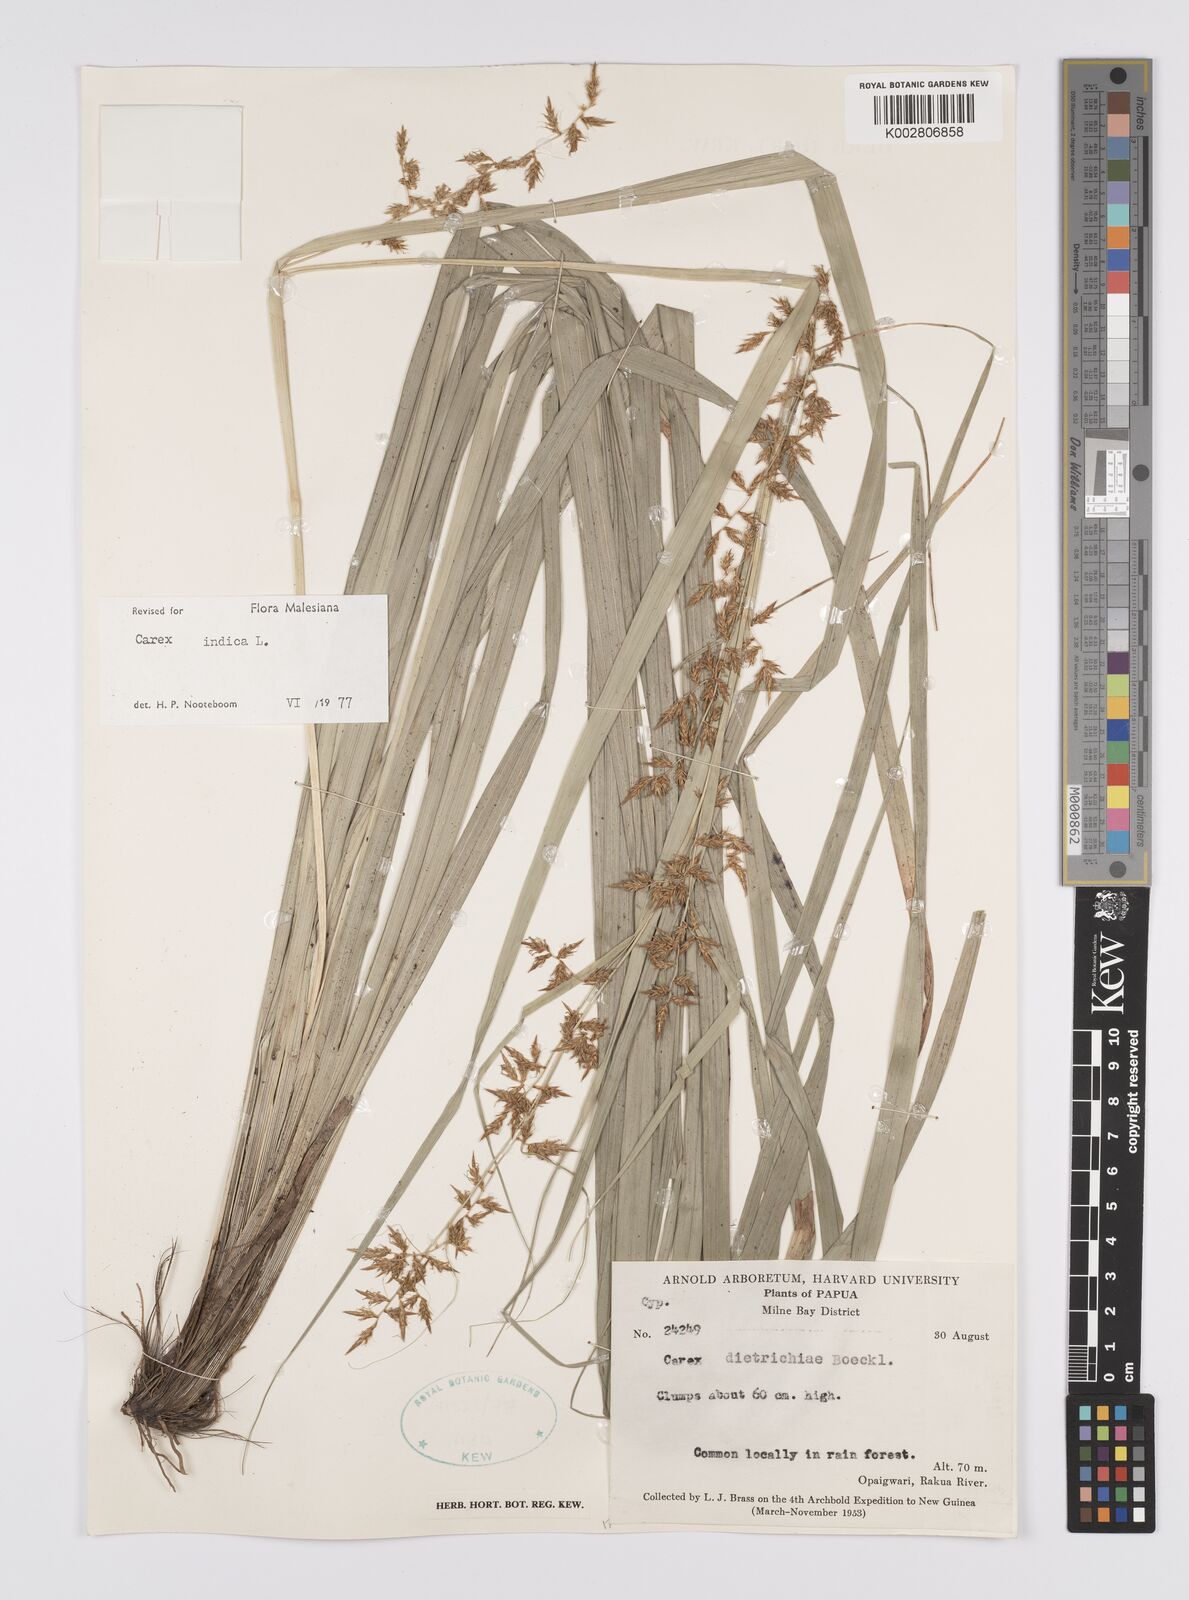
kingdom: Plantae
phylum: Tracheophyta
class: Liliopsida
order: Poales
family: Cyperaceae
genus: Carex
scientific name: Carex indica
